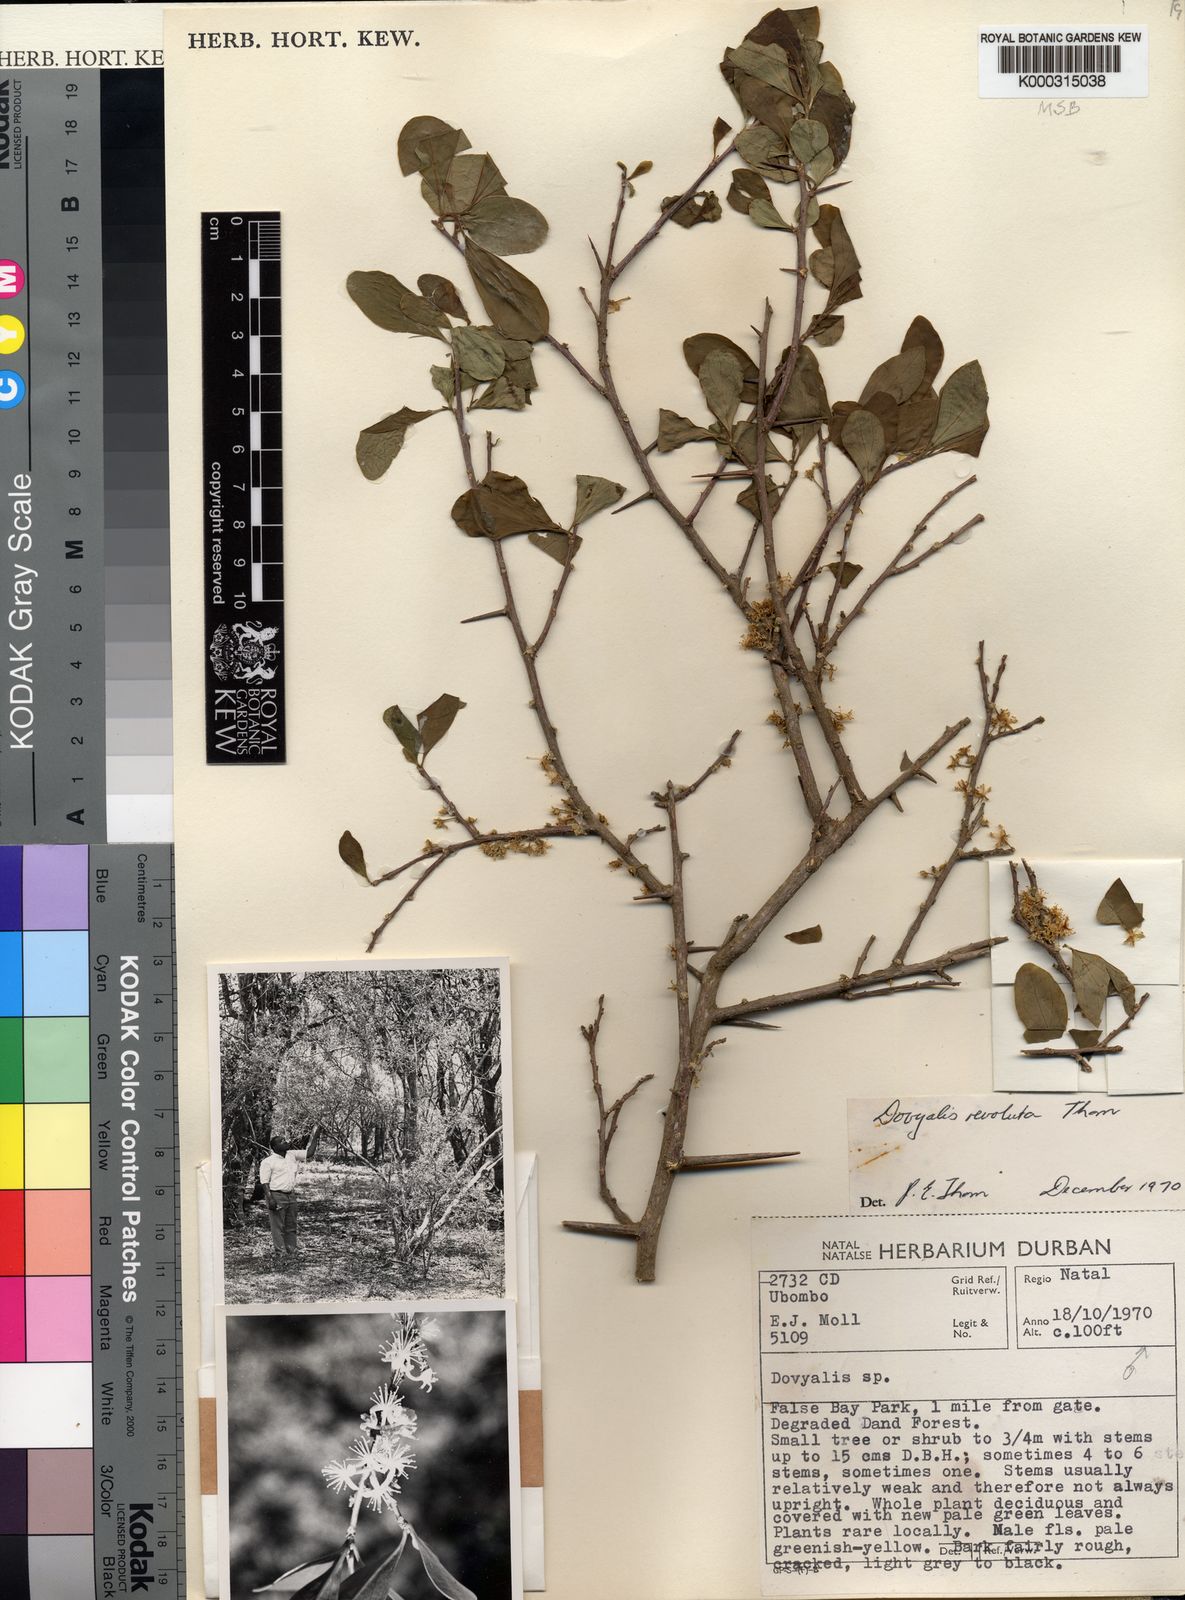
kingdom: Plantae
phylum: Tracheophyta
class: Magnoliopsida
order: Malpighiales
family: Salicaceae
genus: Dovyalis
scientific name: Dovyalis zeyheri
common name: Apricot sourberry
